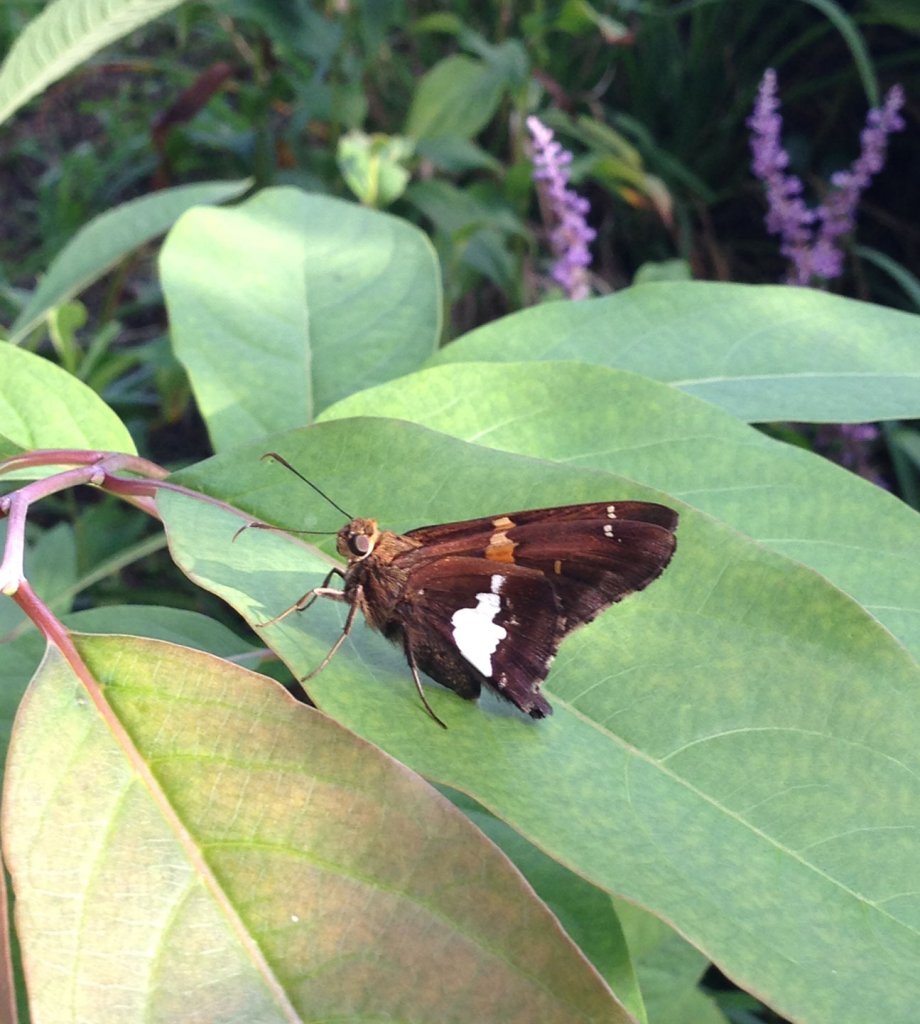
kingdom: Animalia
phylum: Arthropoda
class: Insecta
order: Lepidoptera
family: Hesperiidae
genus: Epargyreus
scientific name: Epargyreus clarus
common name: Silver-spotted Skipper
